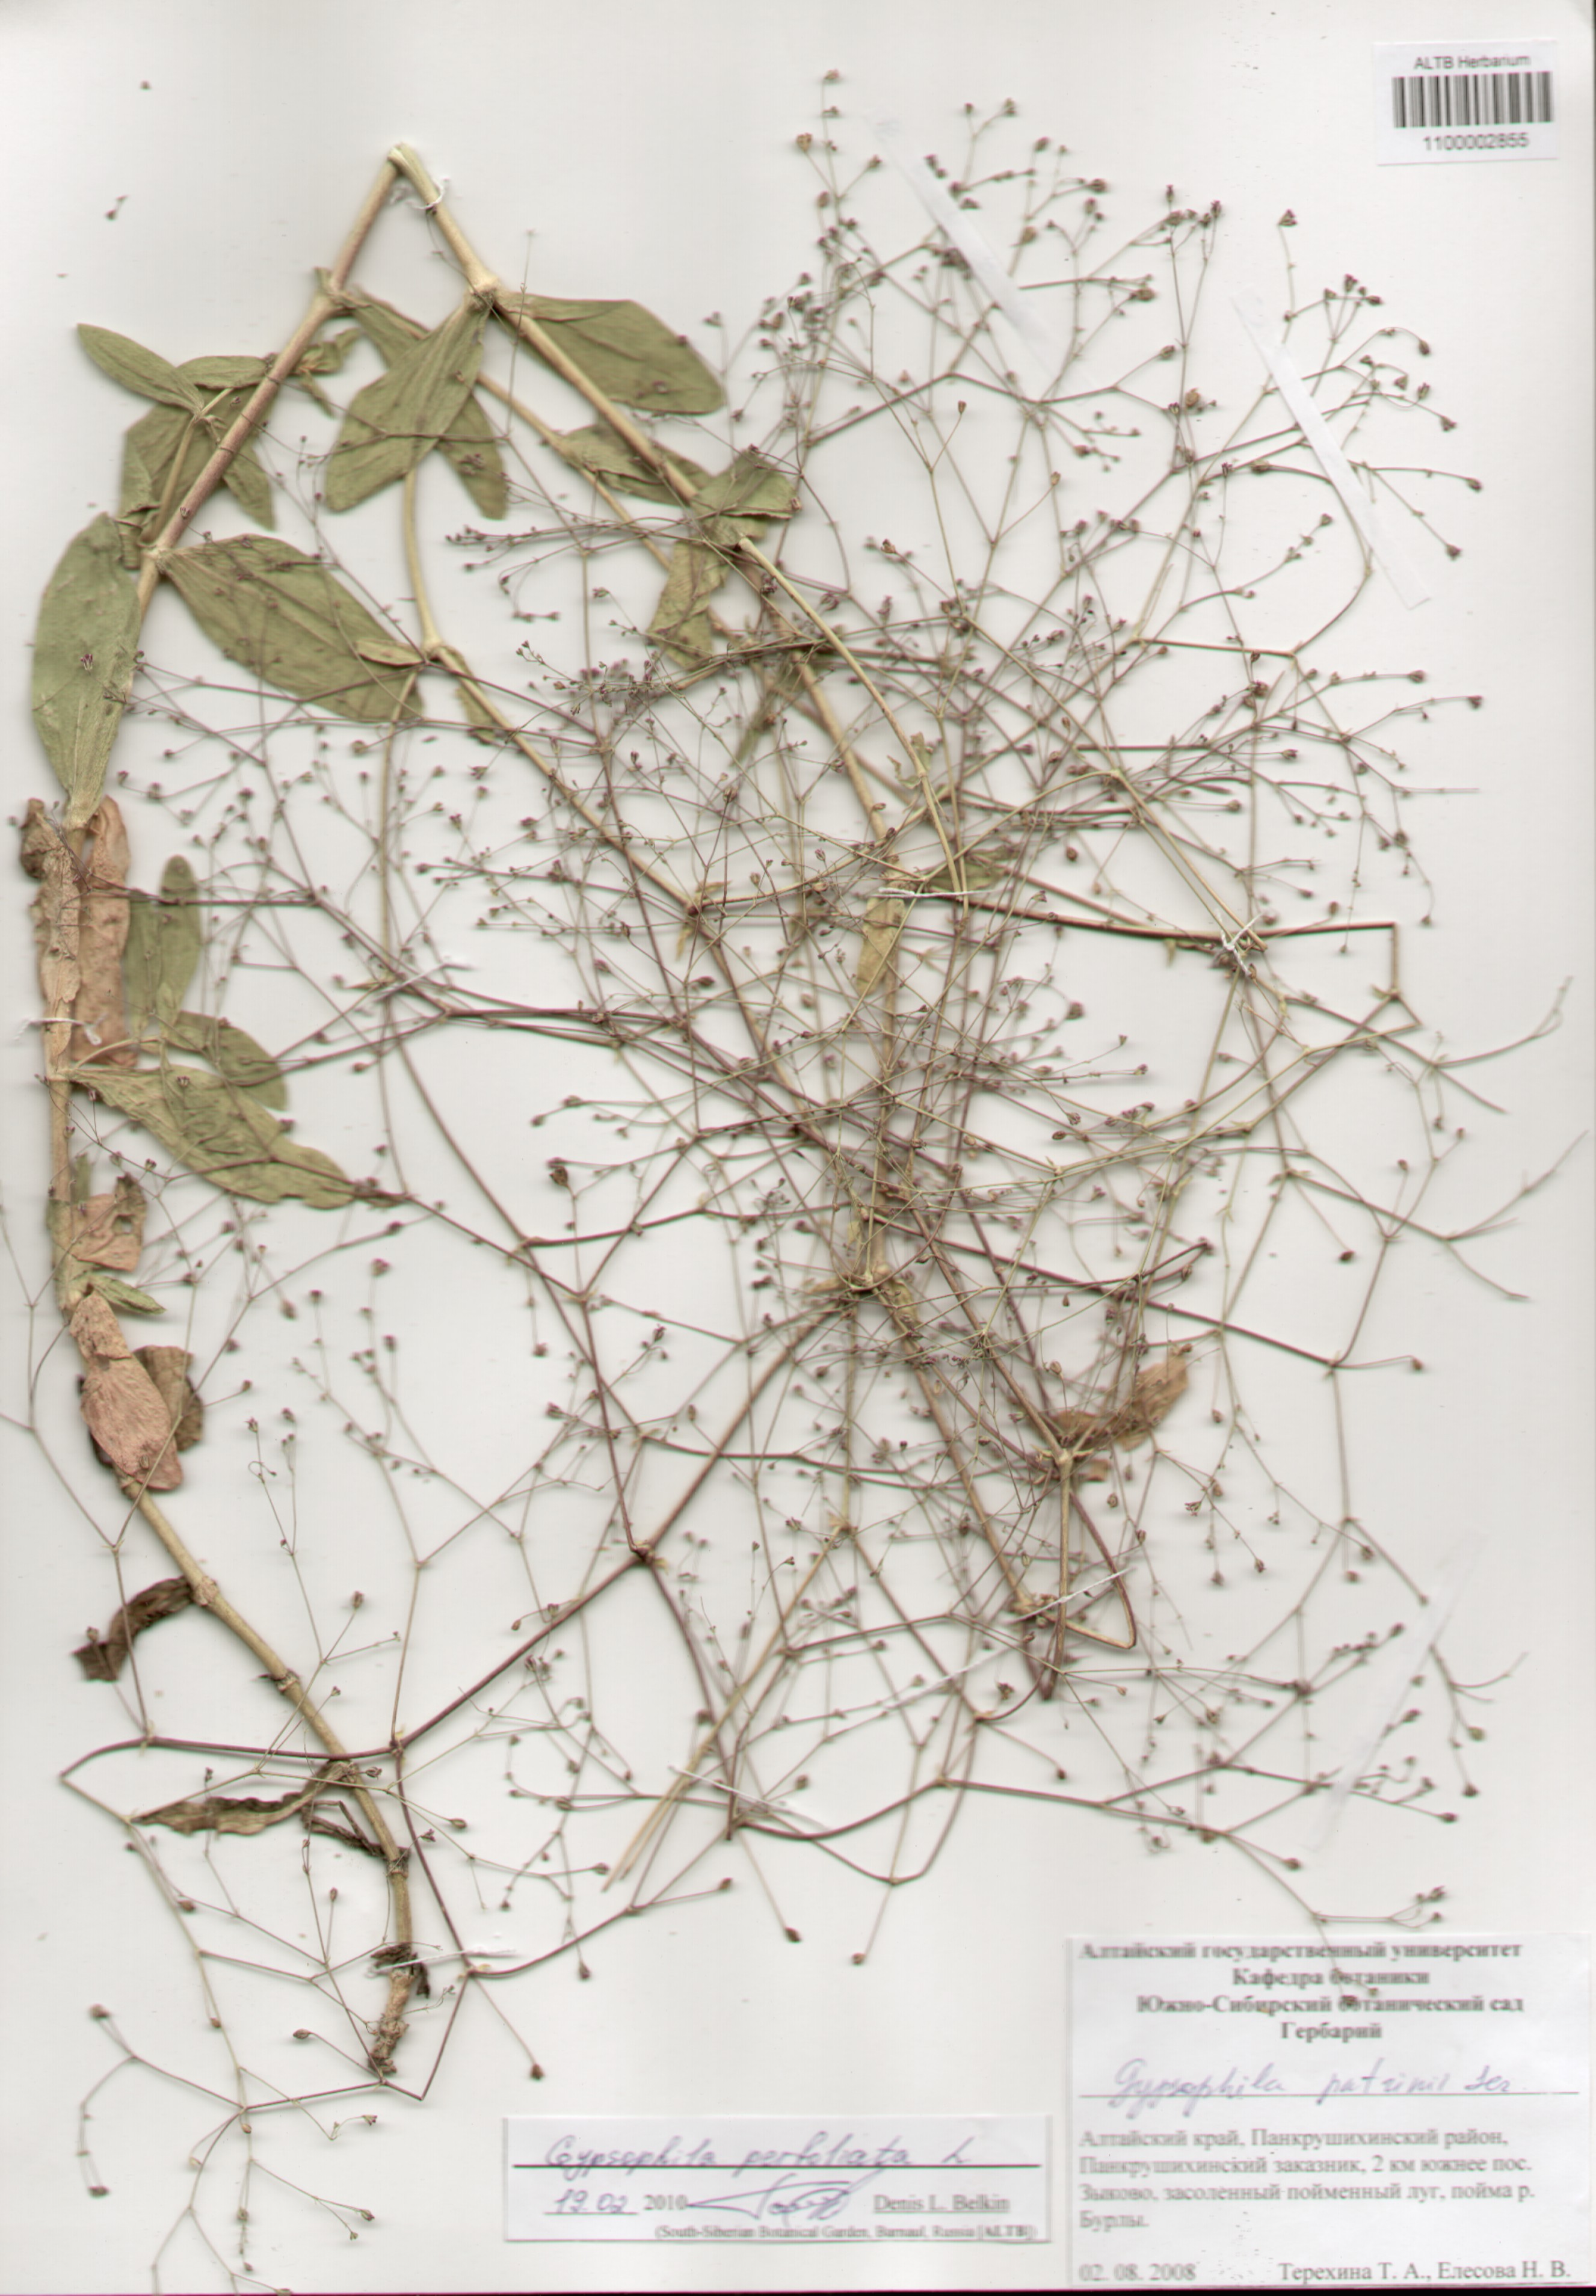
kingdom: Plantae
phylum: Tracheophyta
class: Magnoliopsida
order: Caryophyllales
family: Caryophyllaceae
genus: Gypsophila
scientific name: Gypsophila perfoliata
